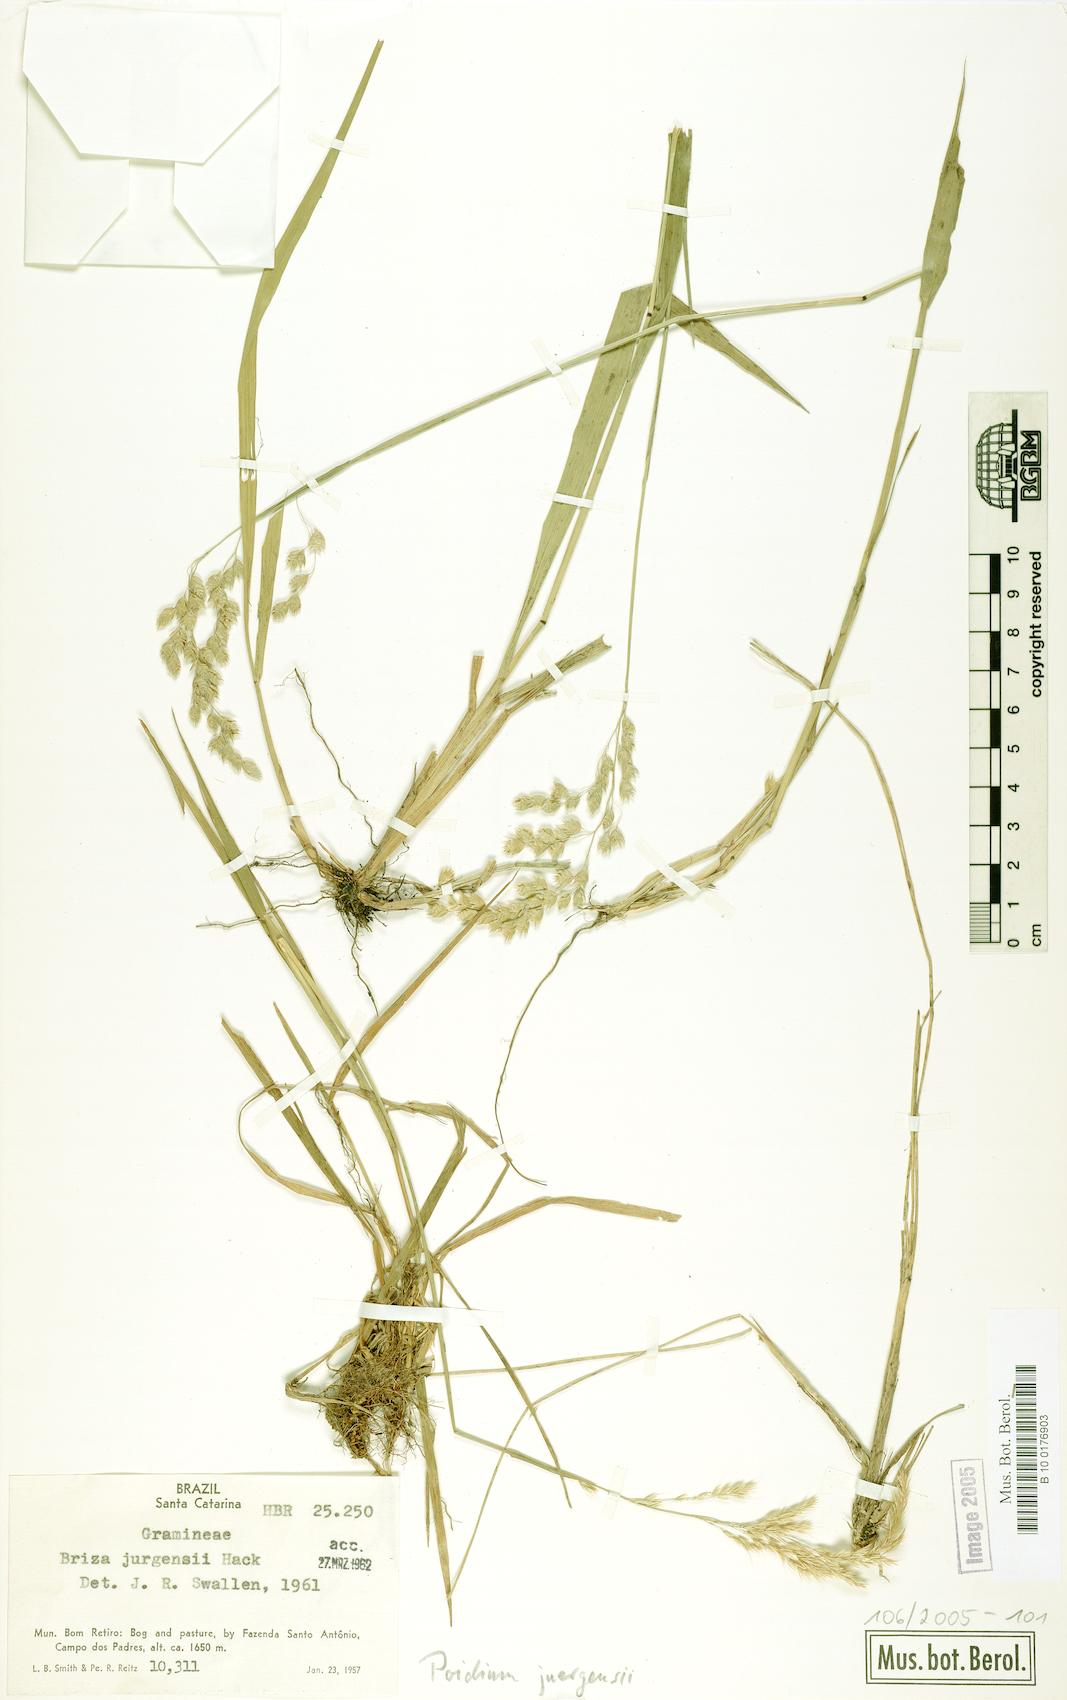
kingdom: Plantae
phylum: Tracheophyta
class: Liliopsida
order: Poales
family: Poaceae
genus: Poidium
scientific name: Poidium juergensii
